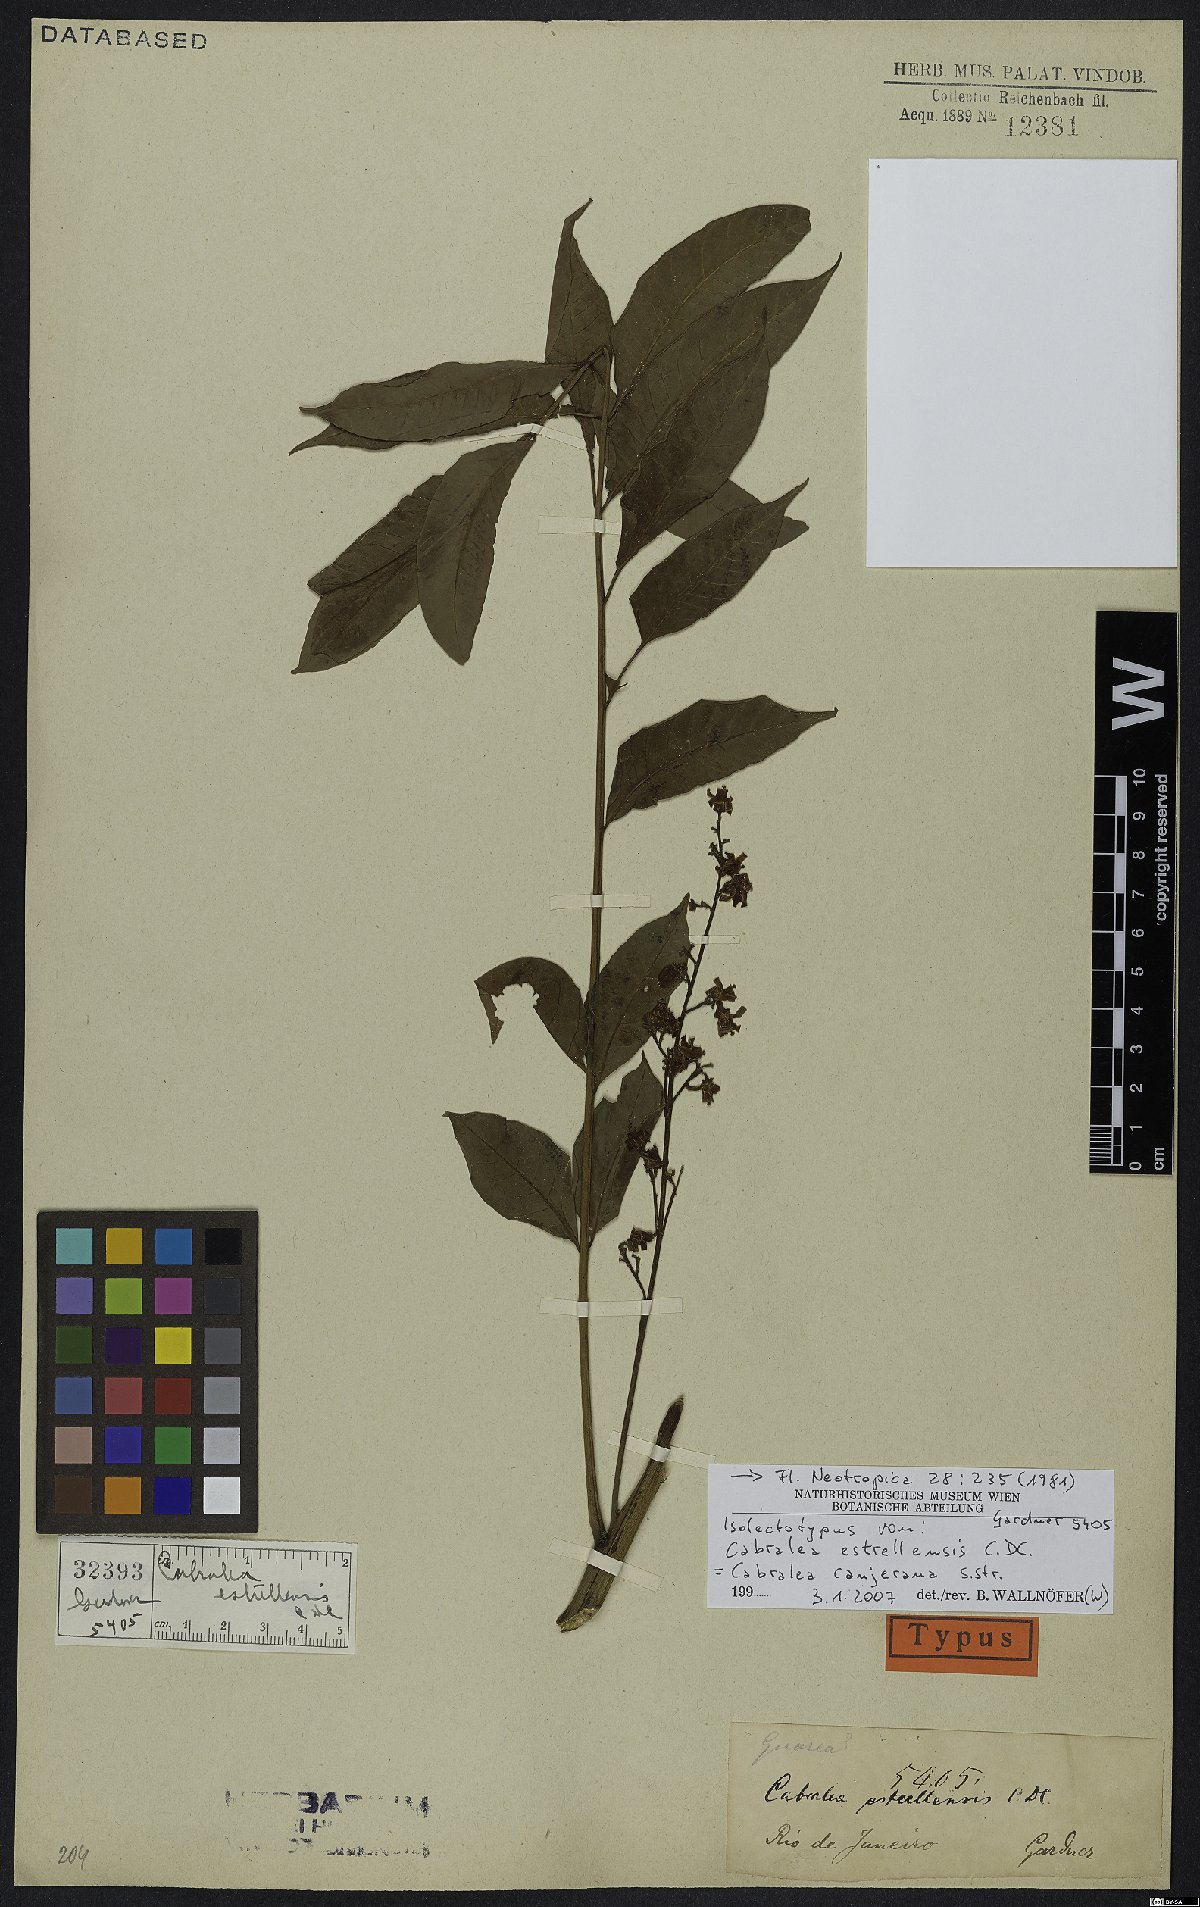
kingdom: Plantae
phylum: Tracheophyta
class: Magnoliopsida
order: Sapindales
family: Meliaceae
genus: Cabralea
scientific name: Cabralea canjerana
